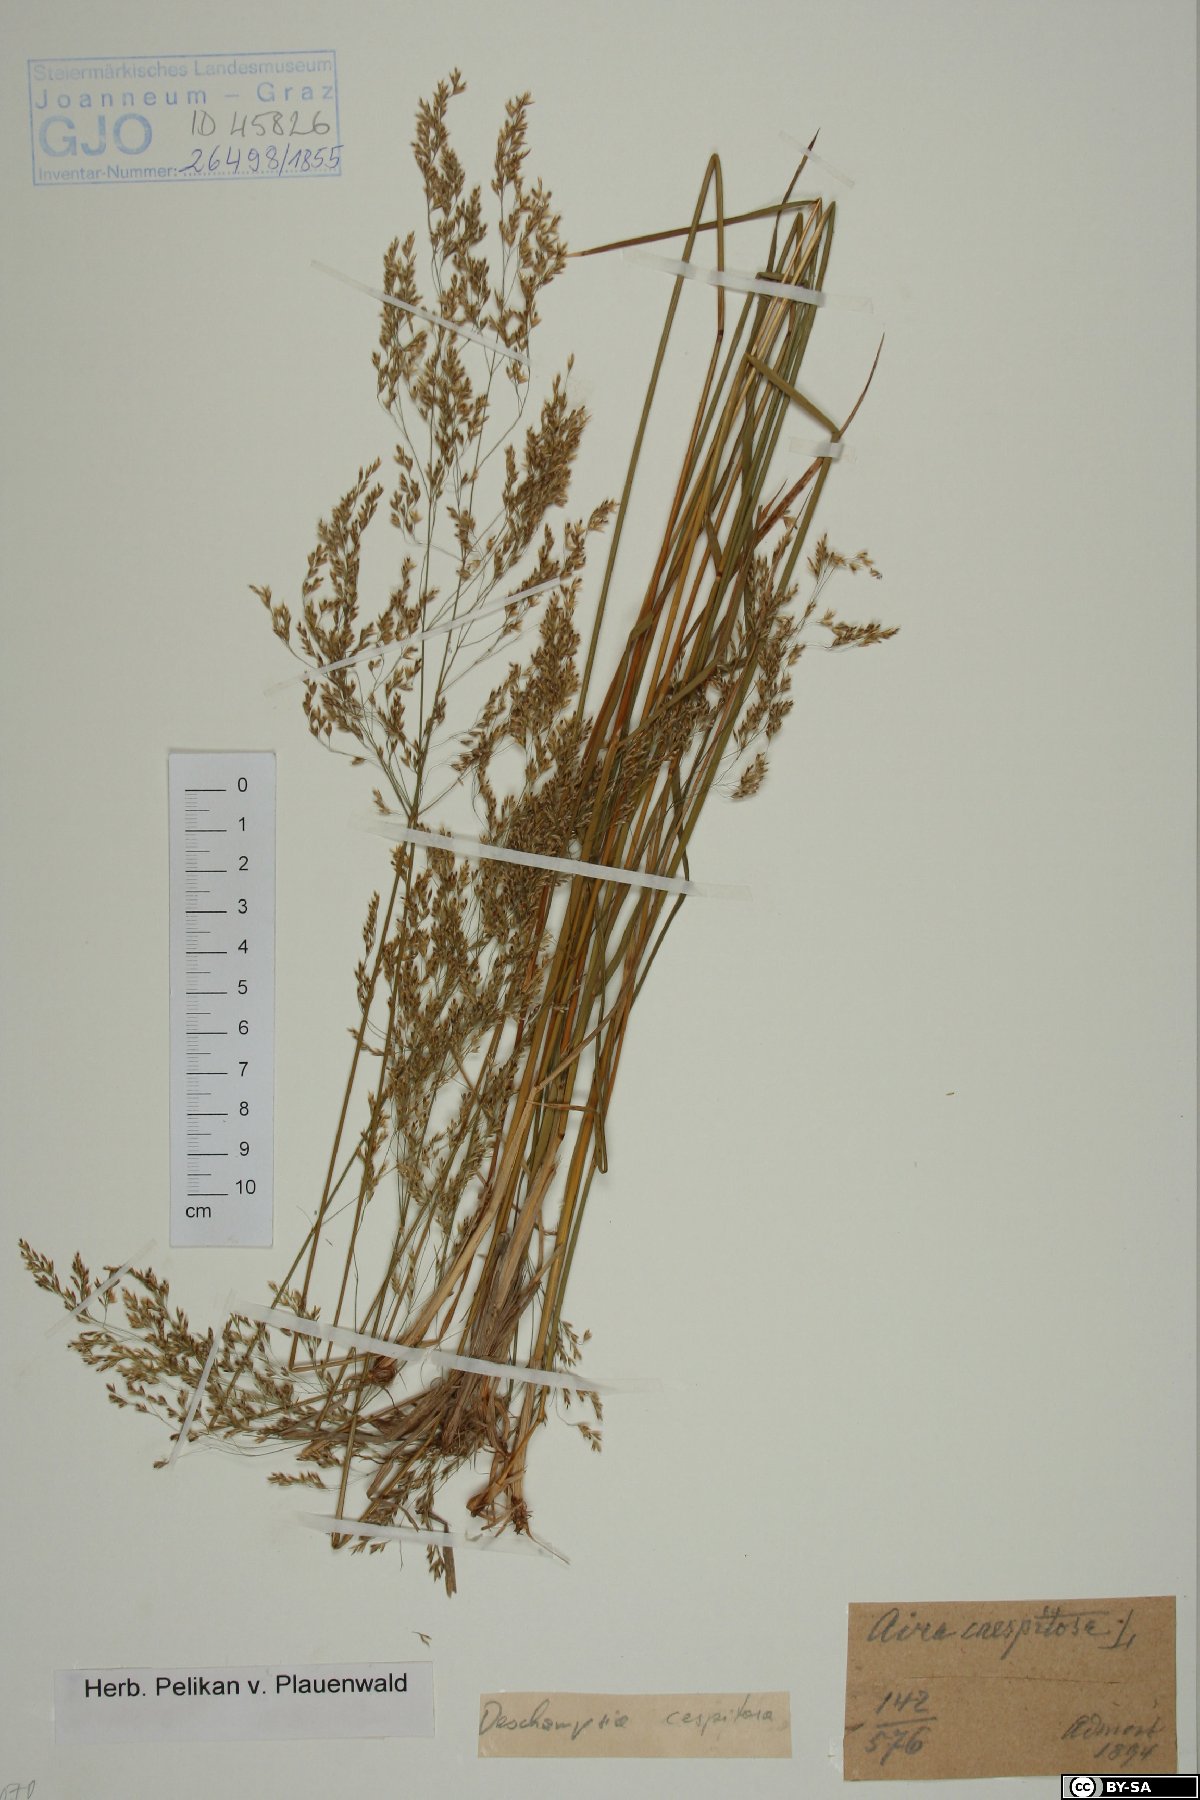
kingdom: Plantae
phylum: Tracheophyta
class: Liliopsida
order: Poales
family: Poaceae
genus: Deschampsia
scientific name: Deschampsia cespitosa
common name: Tufted hair-grass
